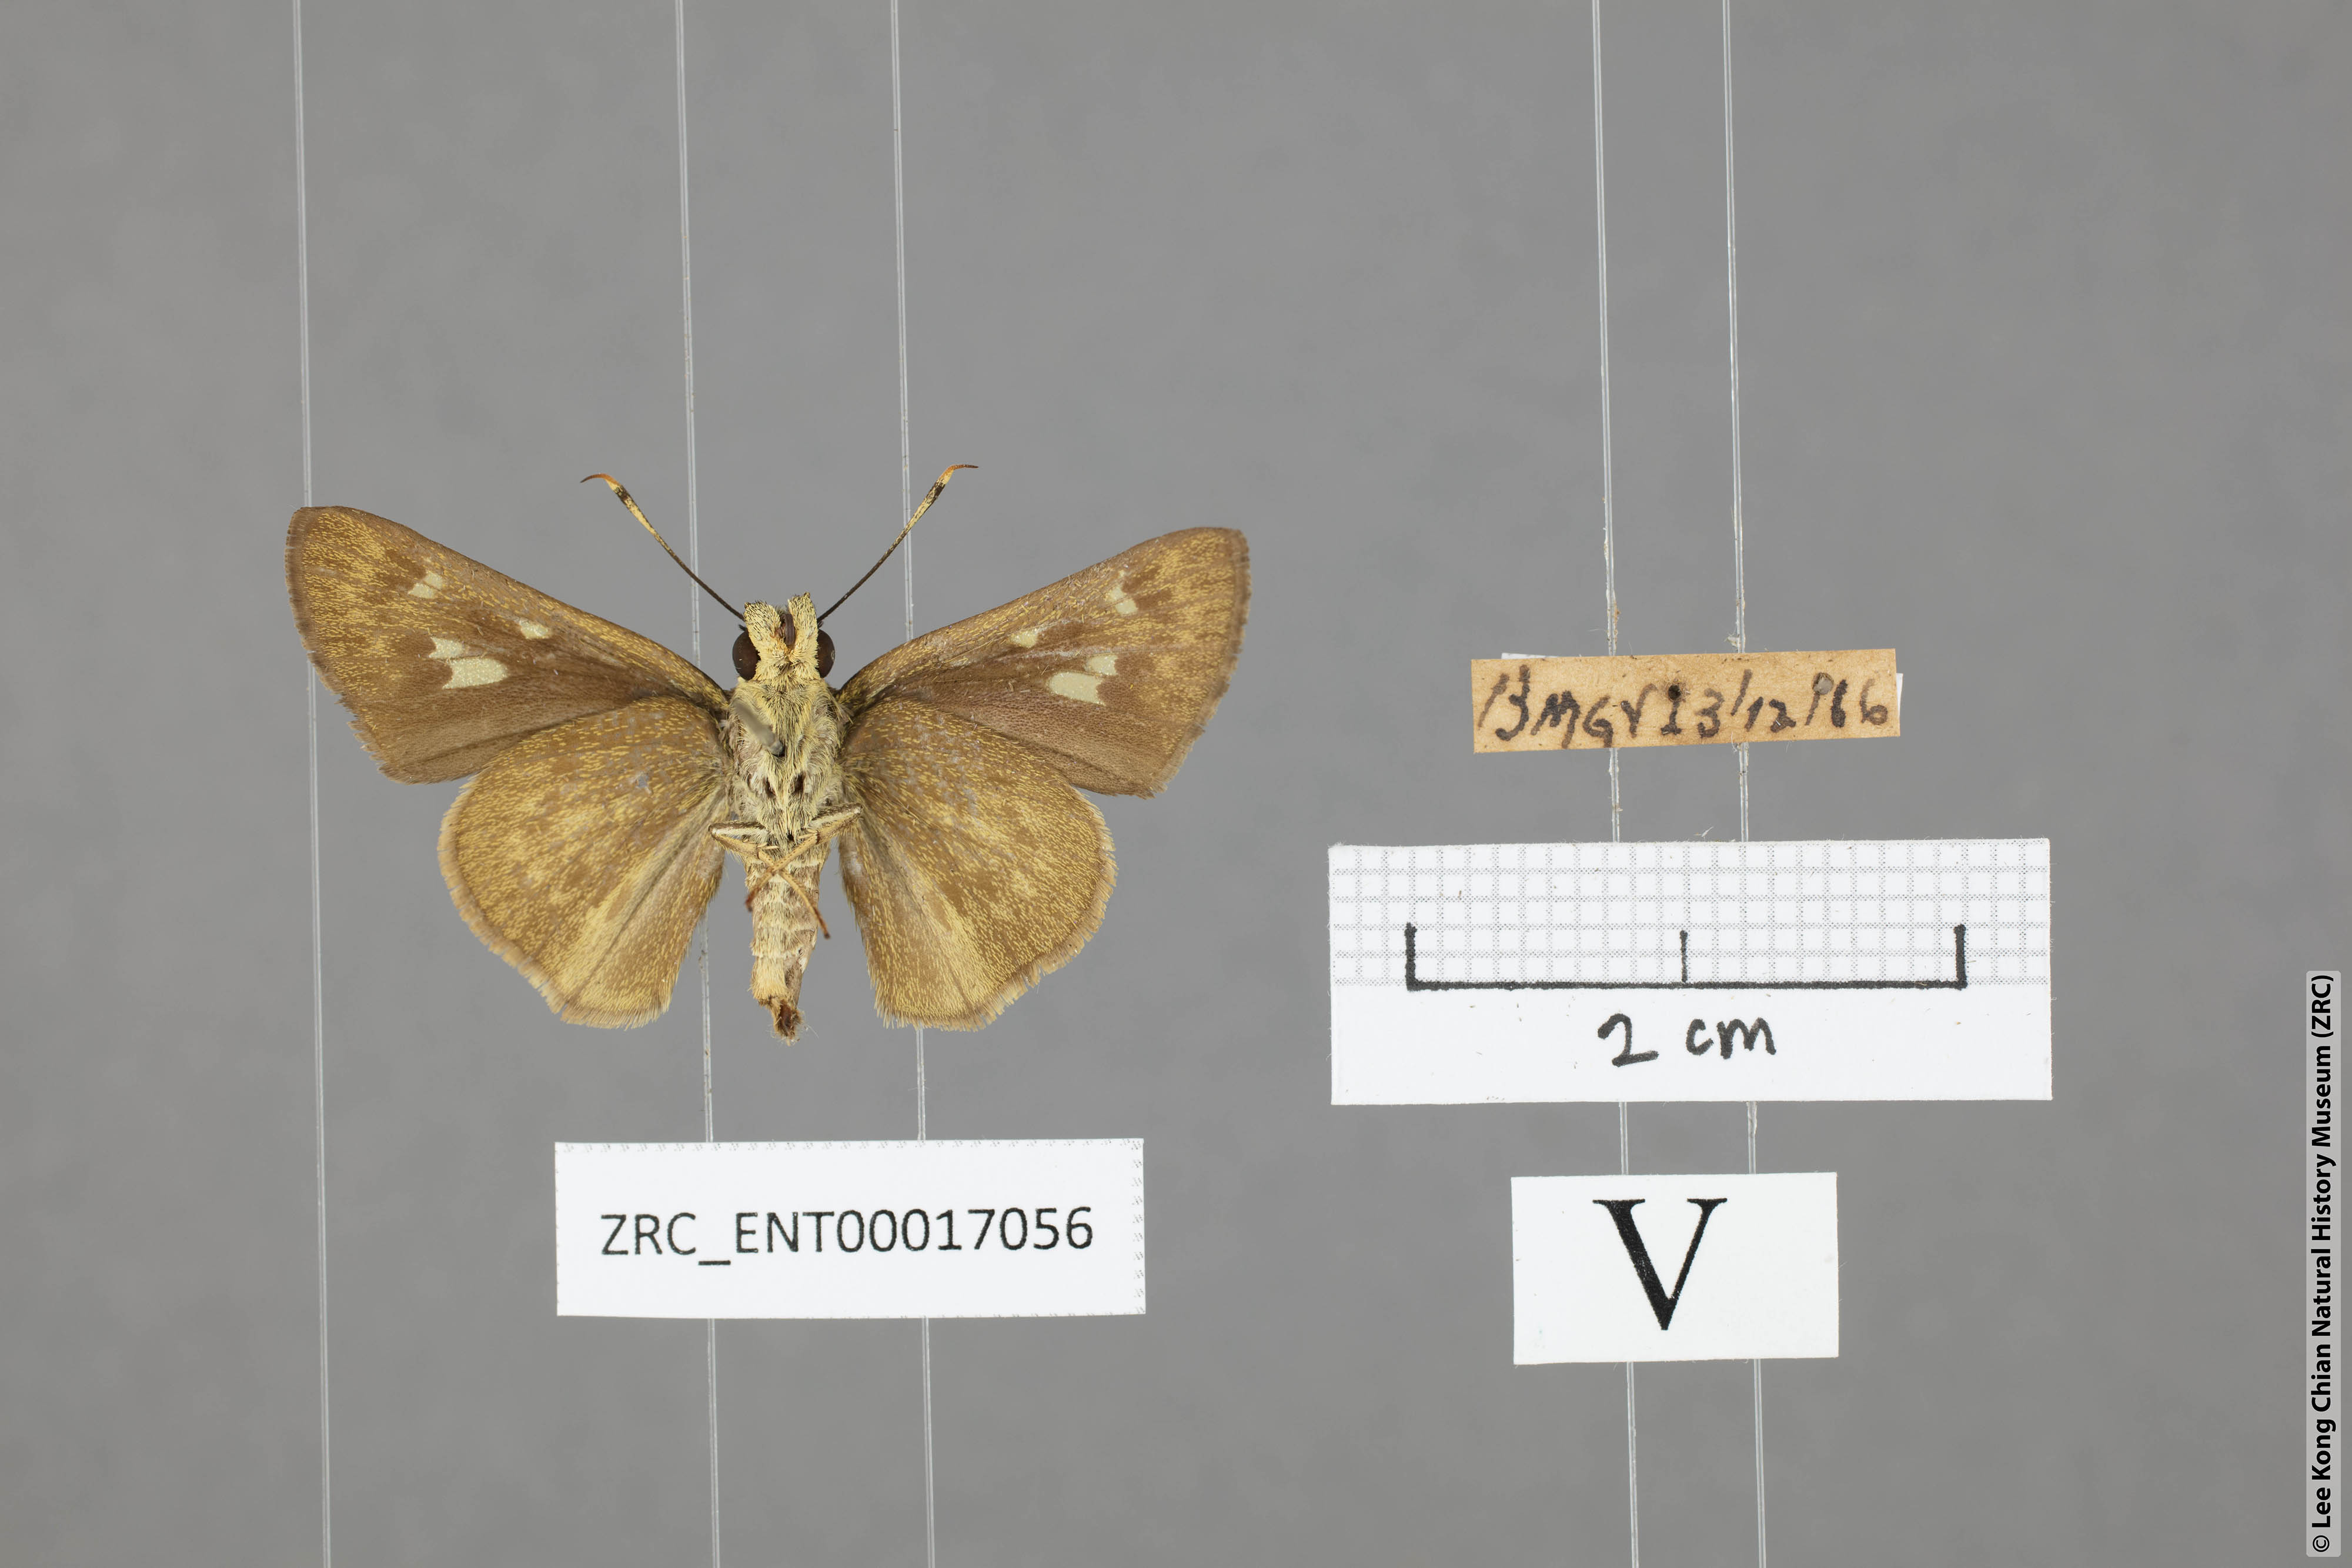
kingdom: Animalia
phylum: Arthropoda
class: Insecta
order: Lepidoptera
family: Hesperiidae
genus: Halpe
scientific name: Halpe sikkima
